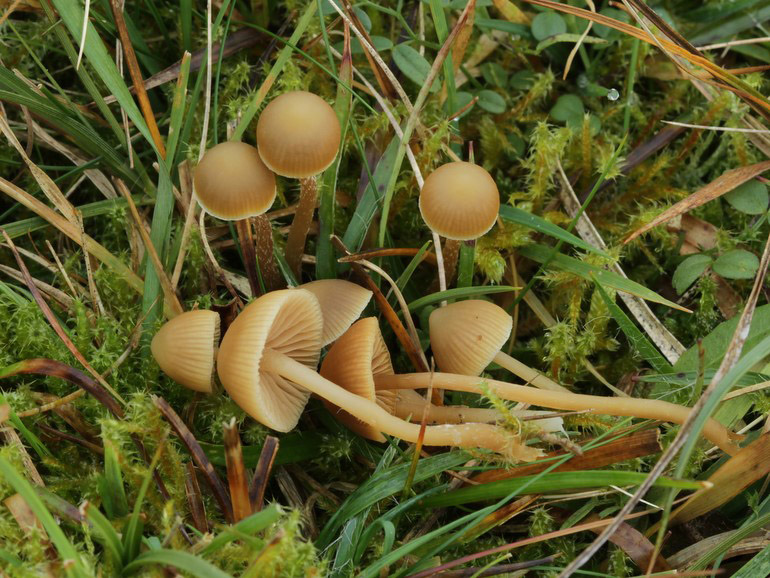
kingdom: Fungi
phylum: Basidiomycota
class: Agaricomycetes
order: Agaricales
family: Hymenogastraceae
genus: Galerina
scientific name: Galerina mniophila
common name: olivengul hjelmhat
